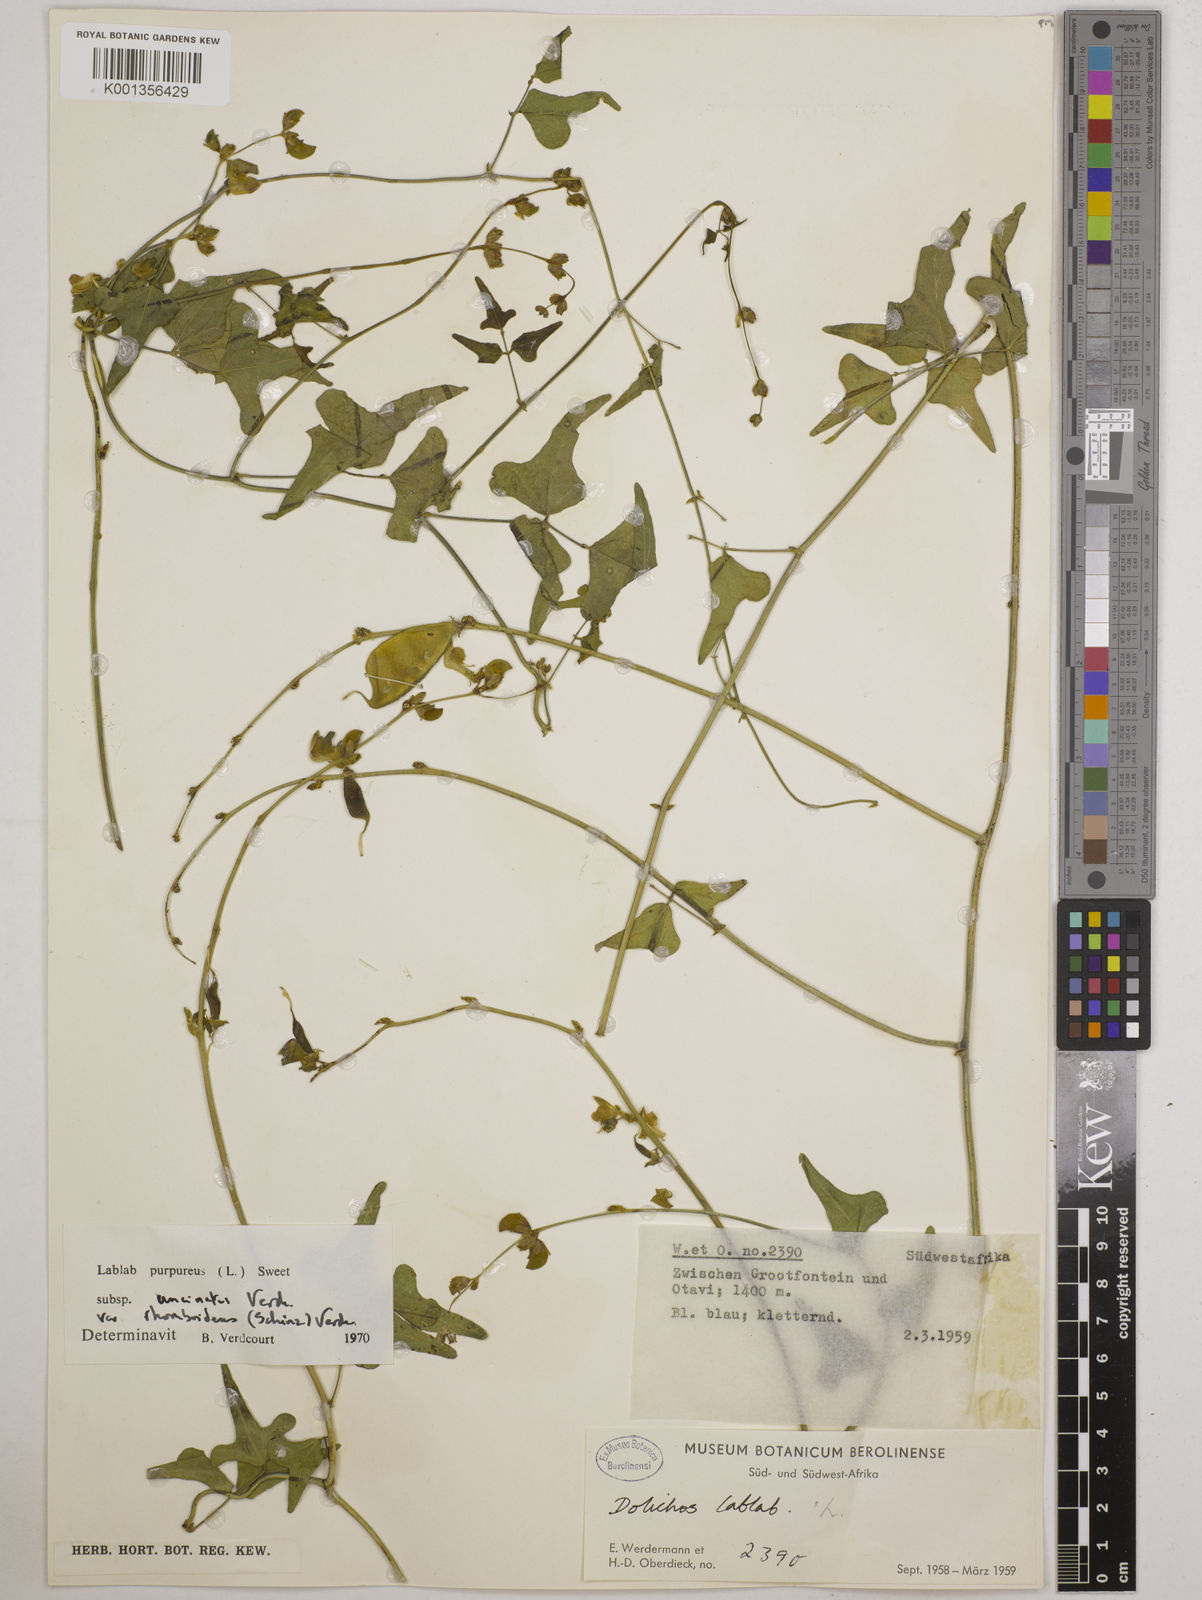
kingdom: Plantae
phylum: Tracheophyta
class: Magnoliopsida
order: Fabales
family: Fabaceae
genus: Lablab
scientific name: Lablab purpureus
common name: Lablab-bean
